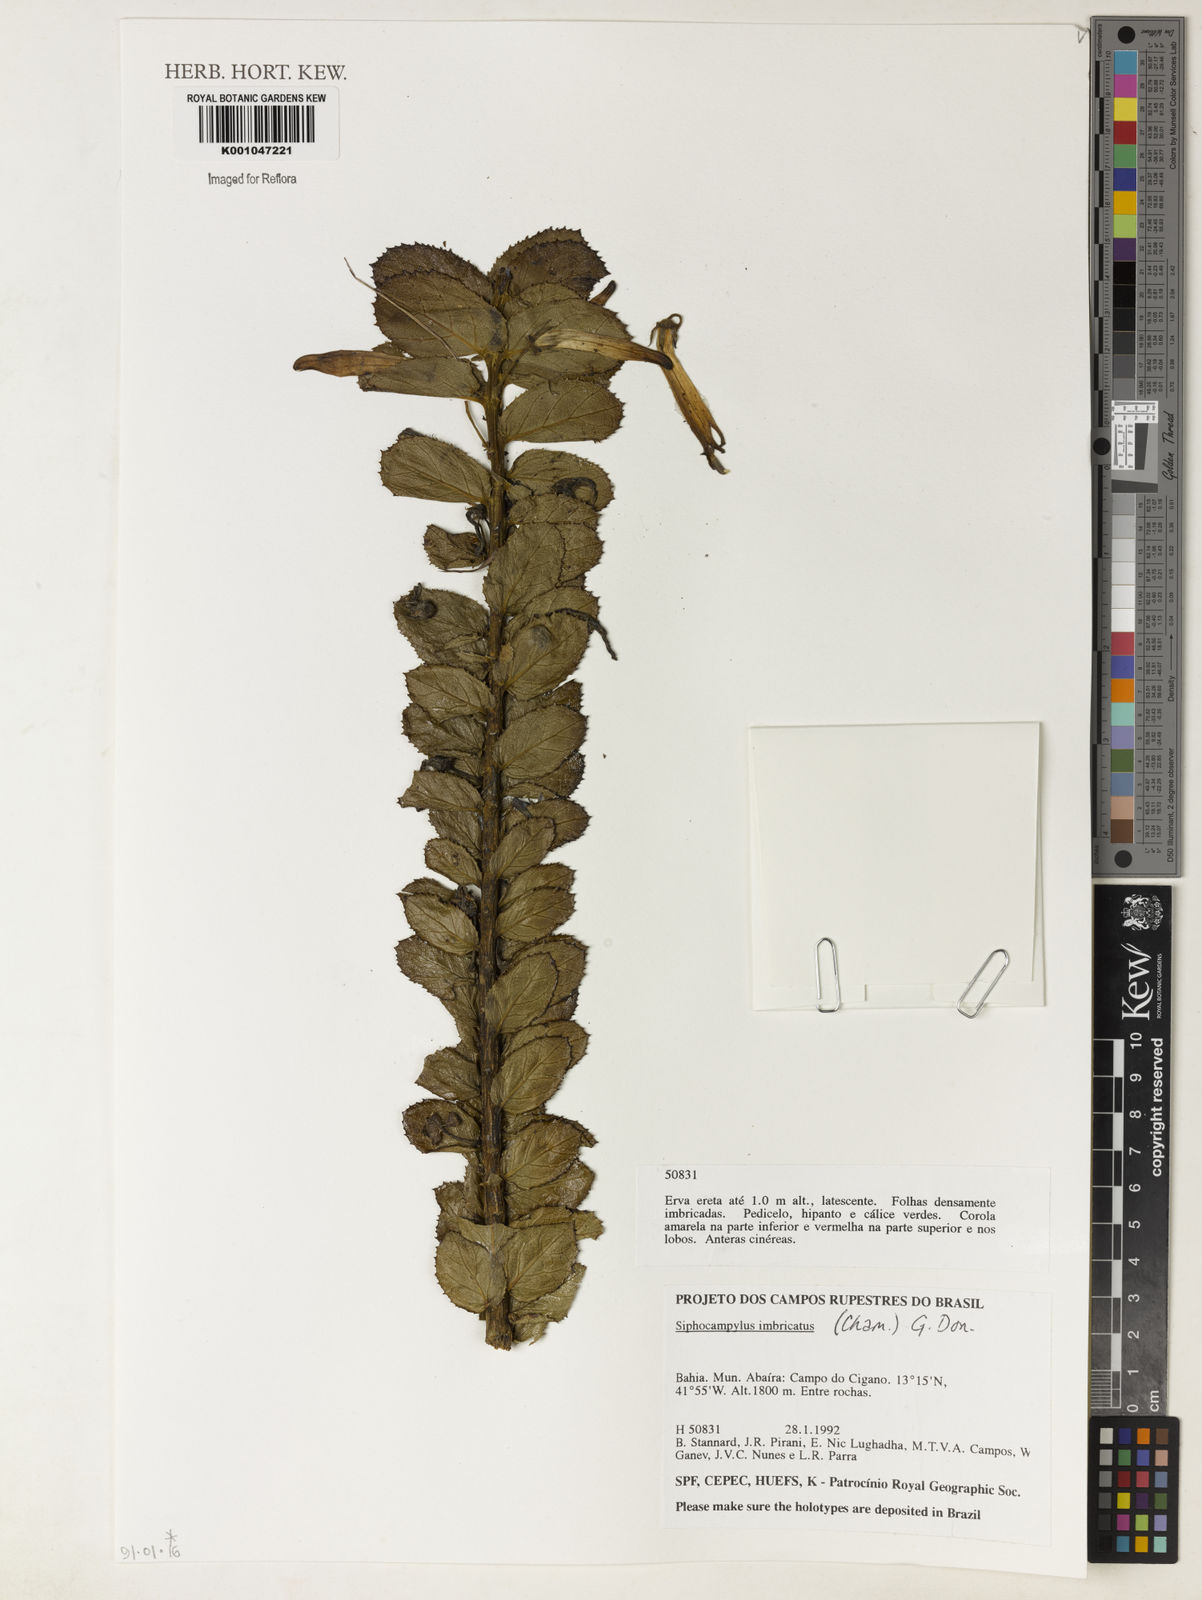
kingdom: Plantae
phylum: Tracheophyta
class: Magnoliopsida
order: Asterales
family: Campanulaceae
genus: Siphocampylus
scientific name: Siphocampylus imbricatus
